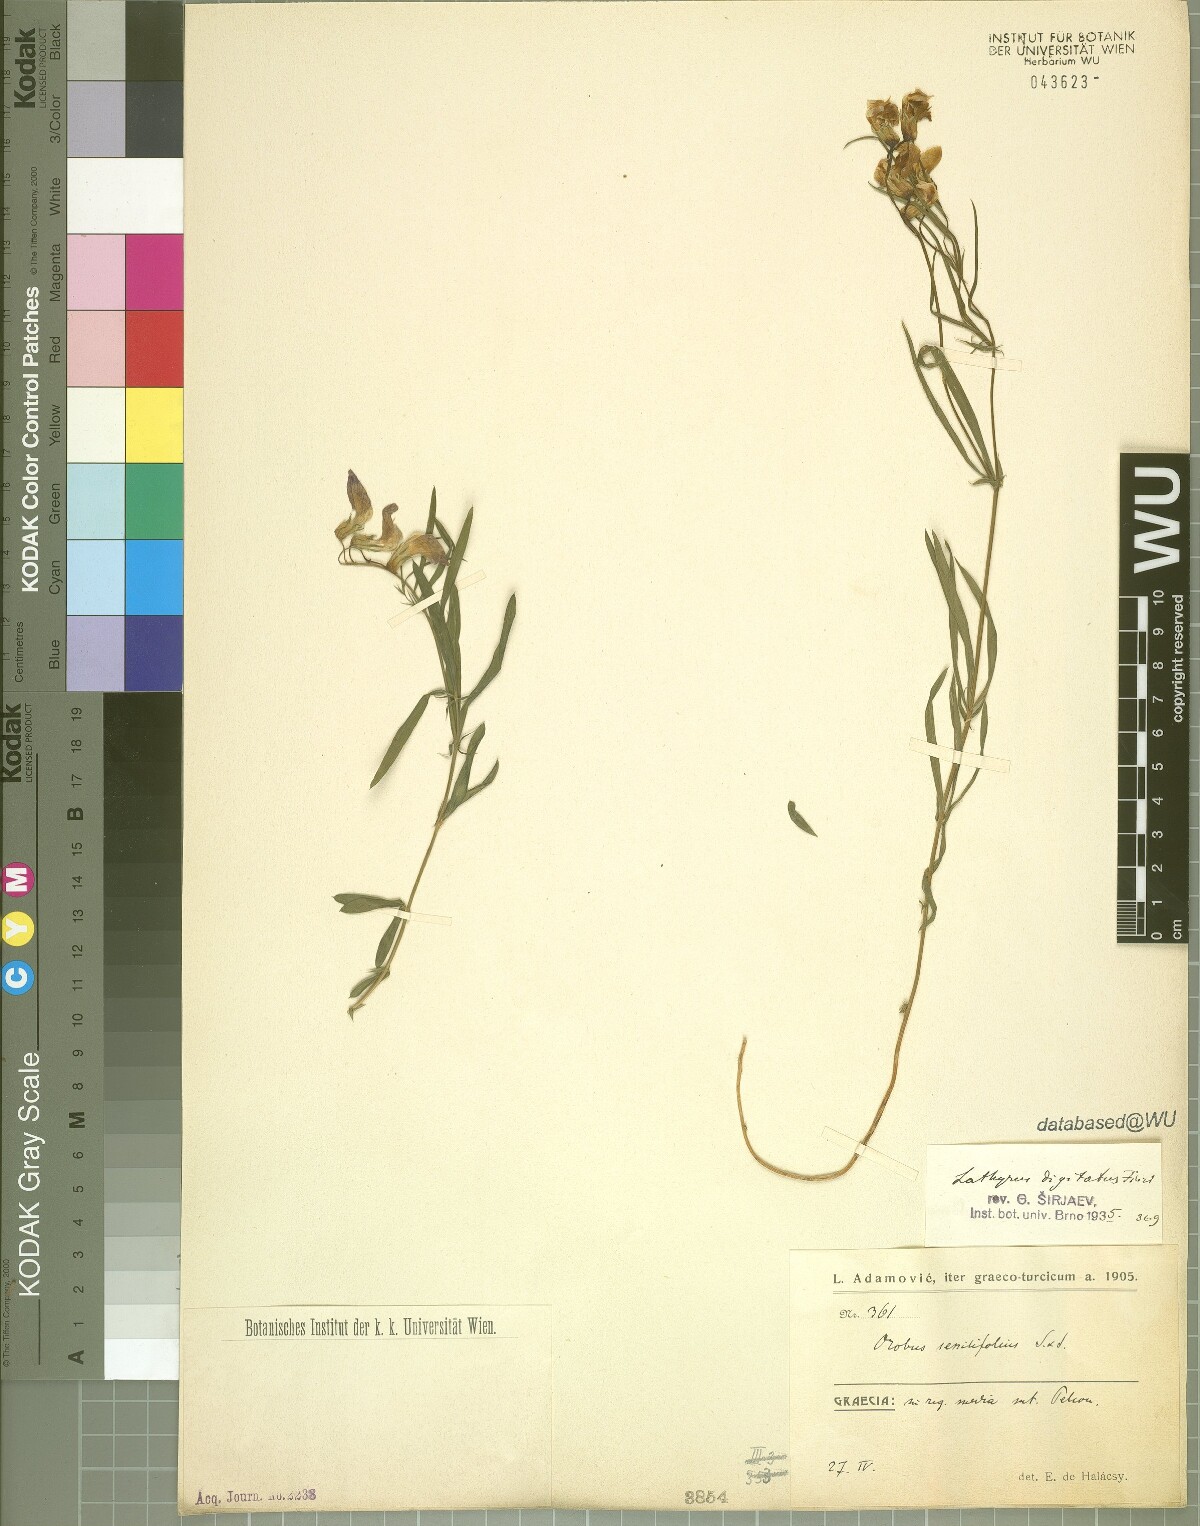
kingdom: Plantae
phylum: Tracheophyta
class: Magnoliopsida
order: Fabales
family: Fabaceae
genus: Lathyrus
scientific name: Lathyrus digitatus
